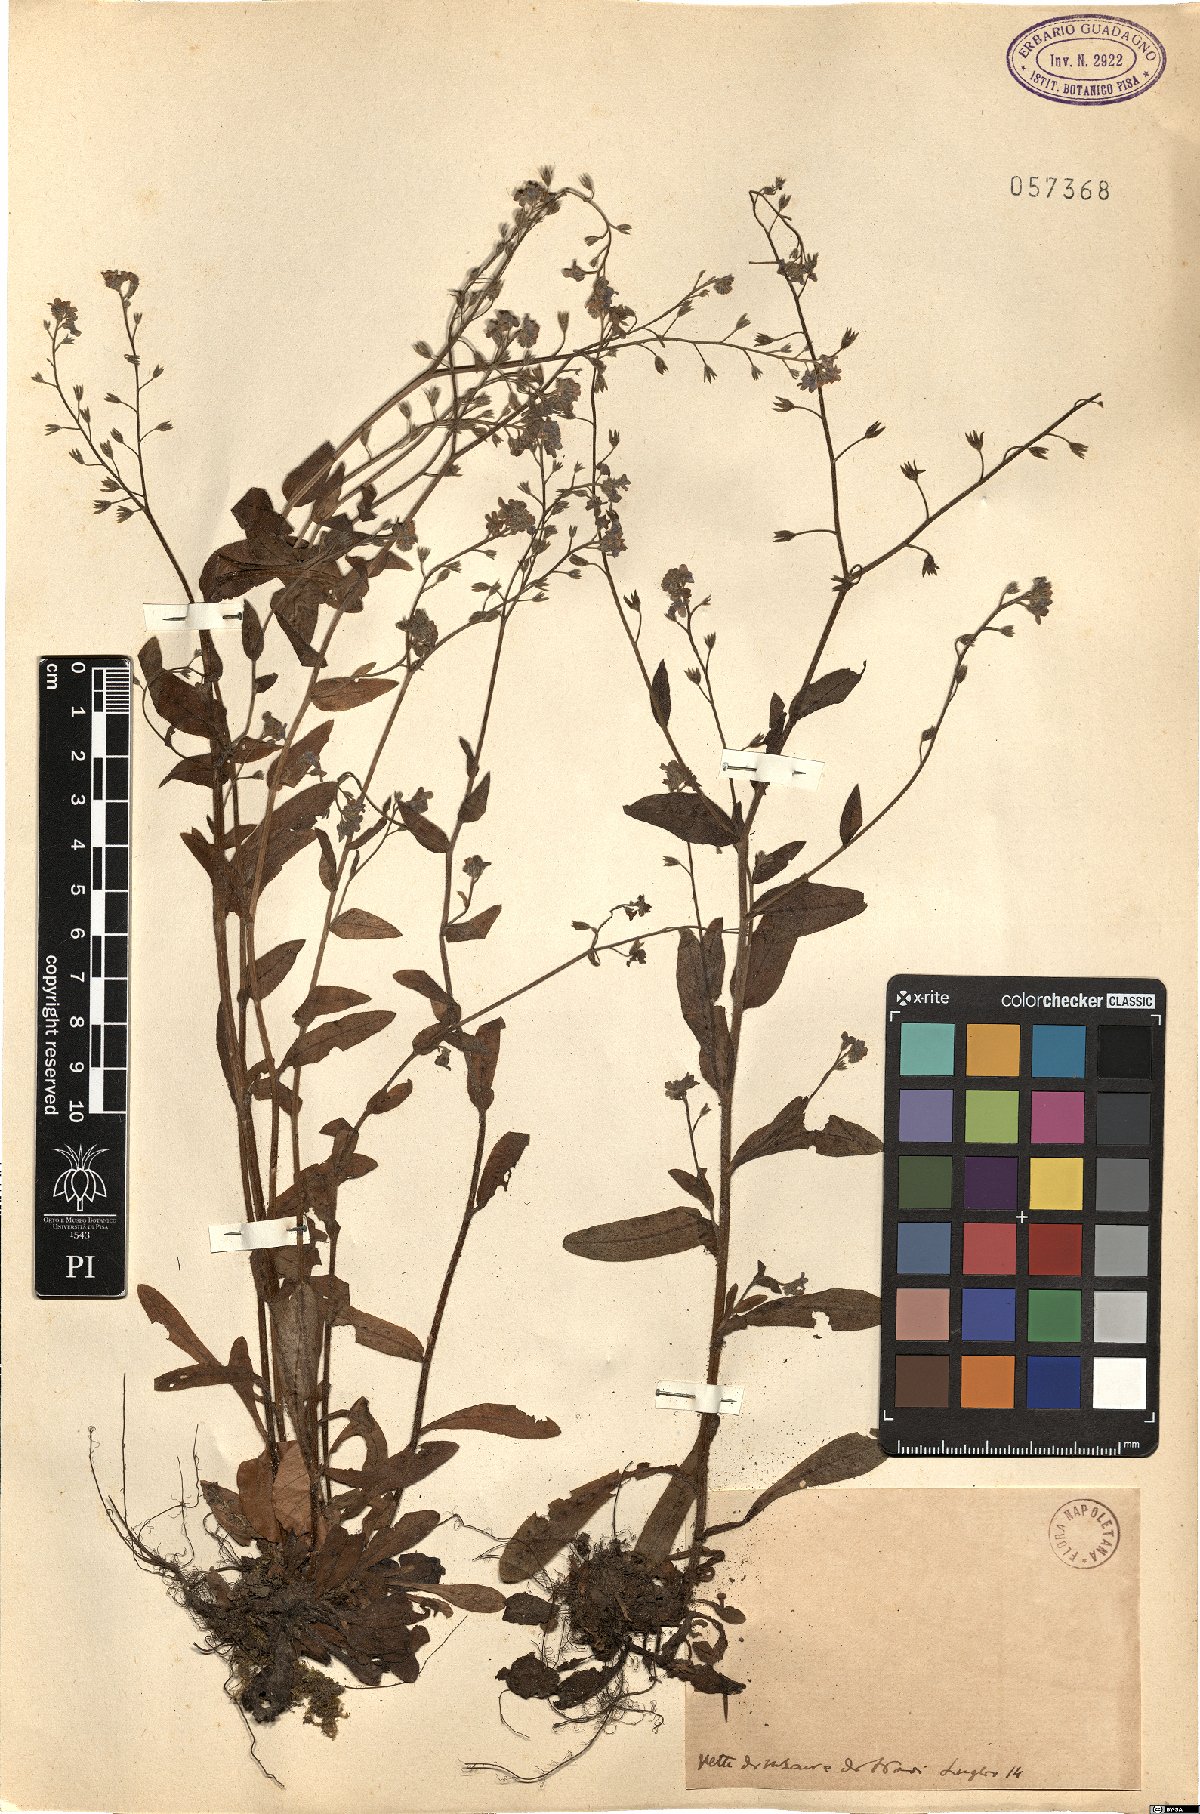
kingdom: Plantae
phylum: Tracheophyta
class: Magnoliopsida
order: Boraginales
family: Boraginaceae
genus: Myosotis
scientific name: Myosotis
